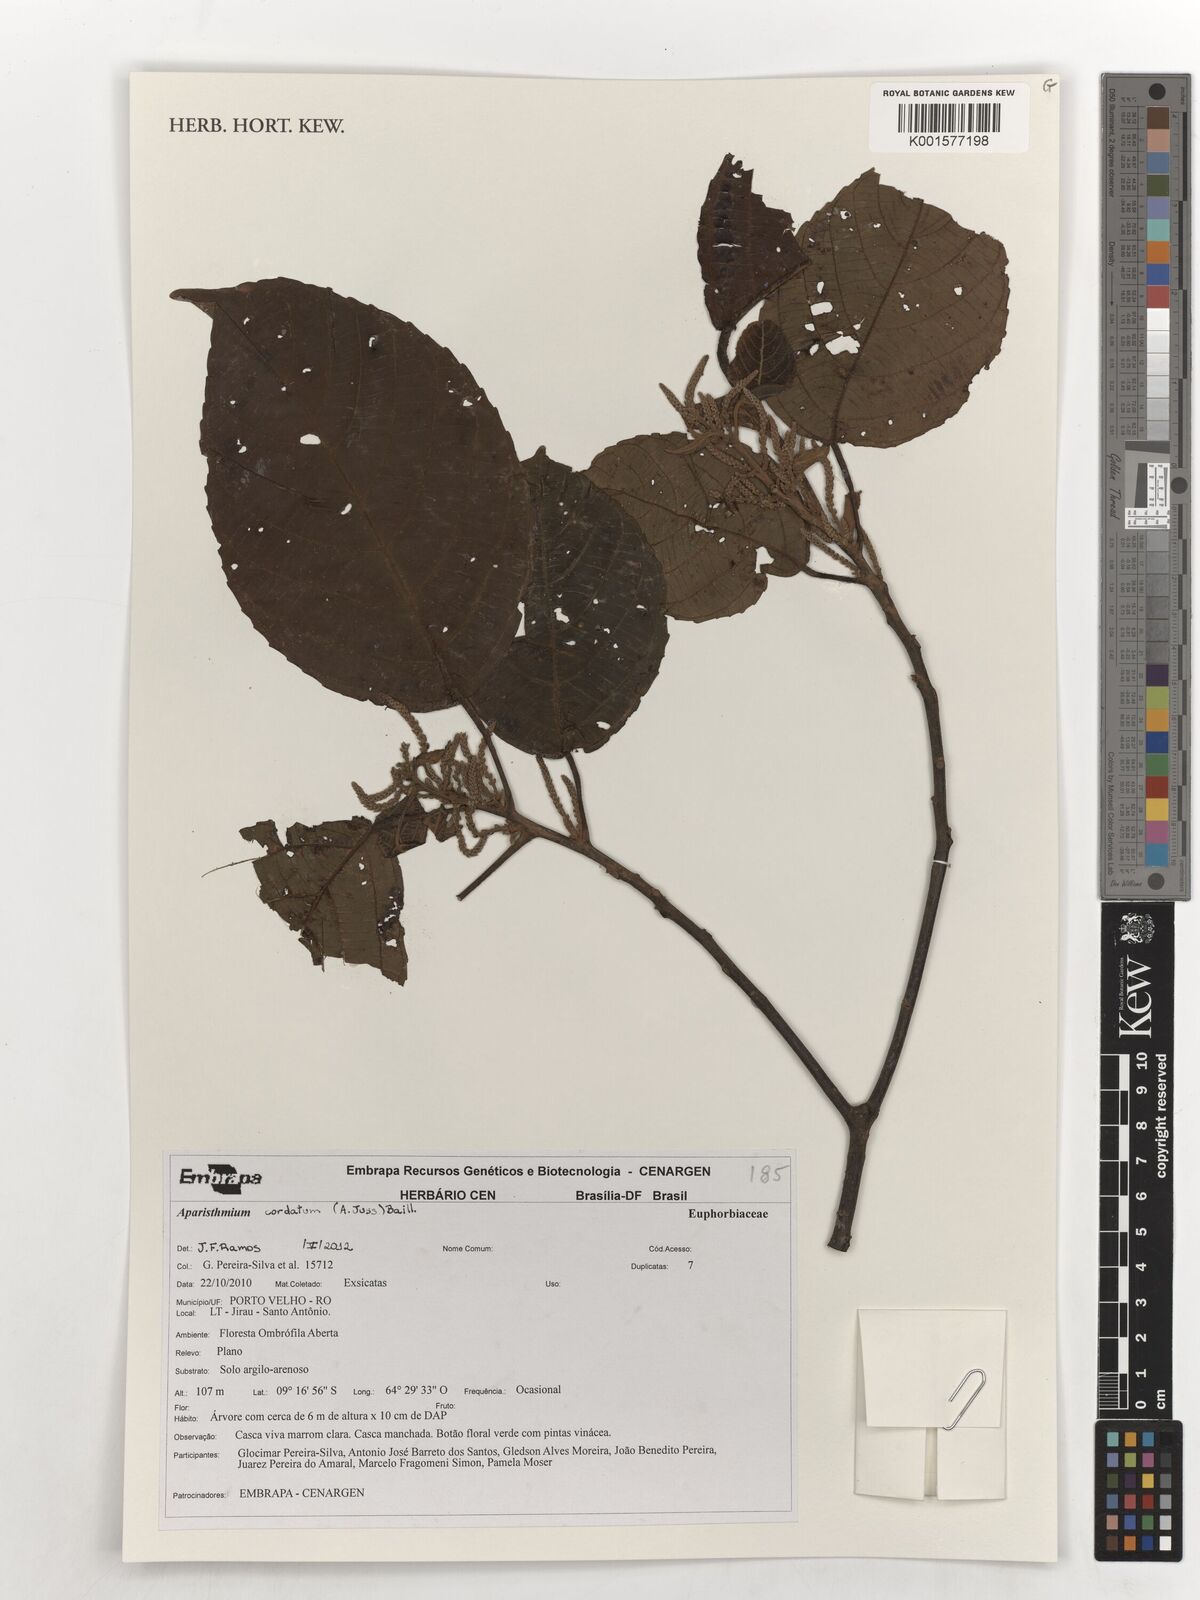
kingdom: Plantae
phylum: Tracheophyta
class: Magnoliopsida
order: Malpighiales
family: Euphorbiaceae
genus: Aparisthmium
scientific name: Aparisthmium cordatum
